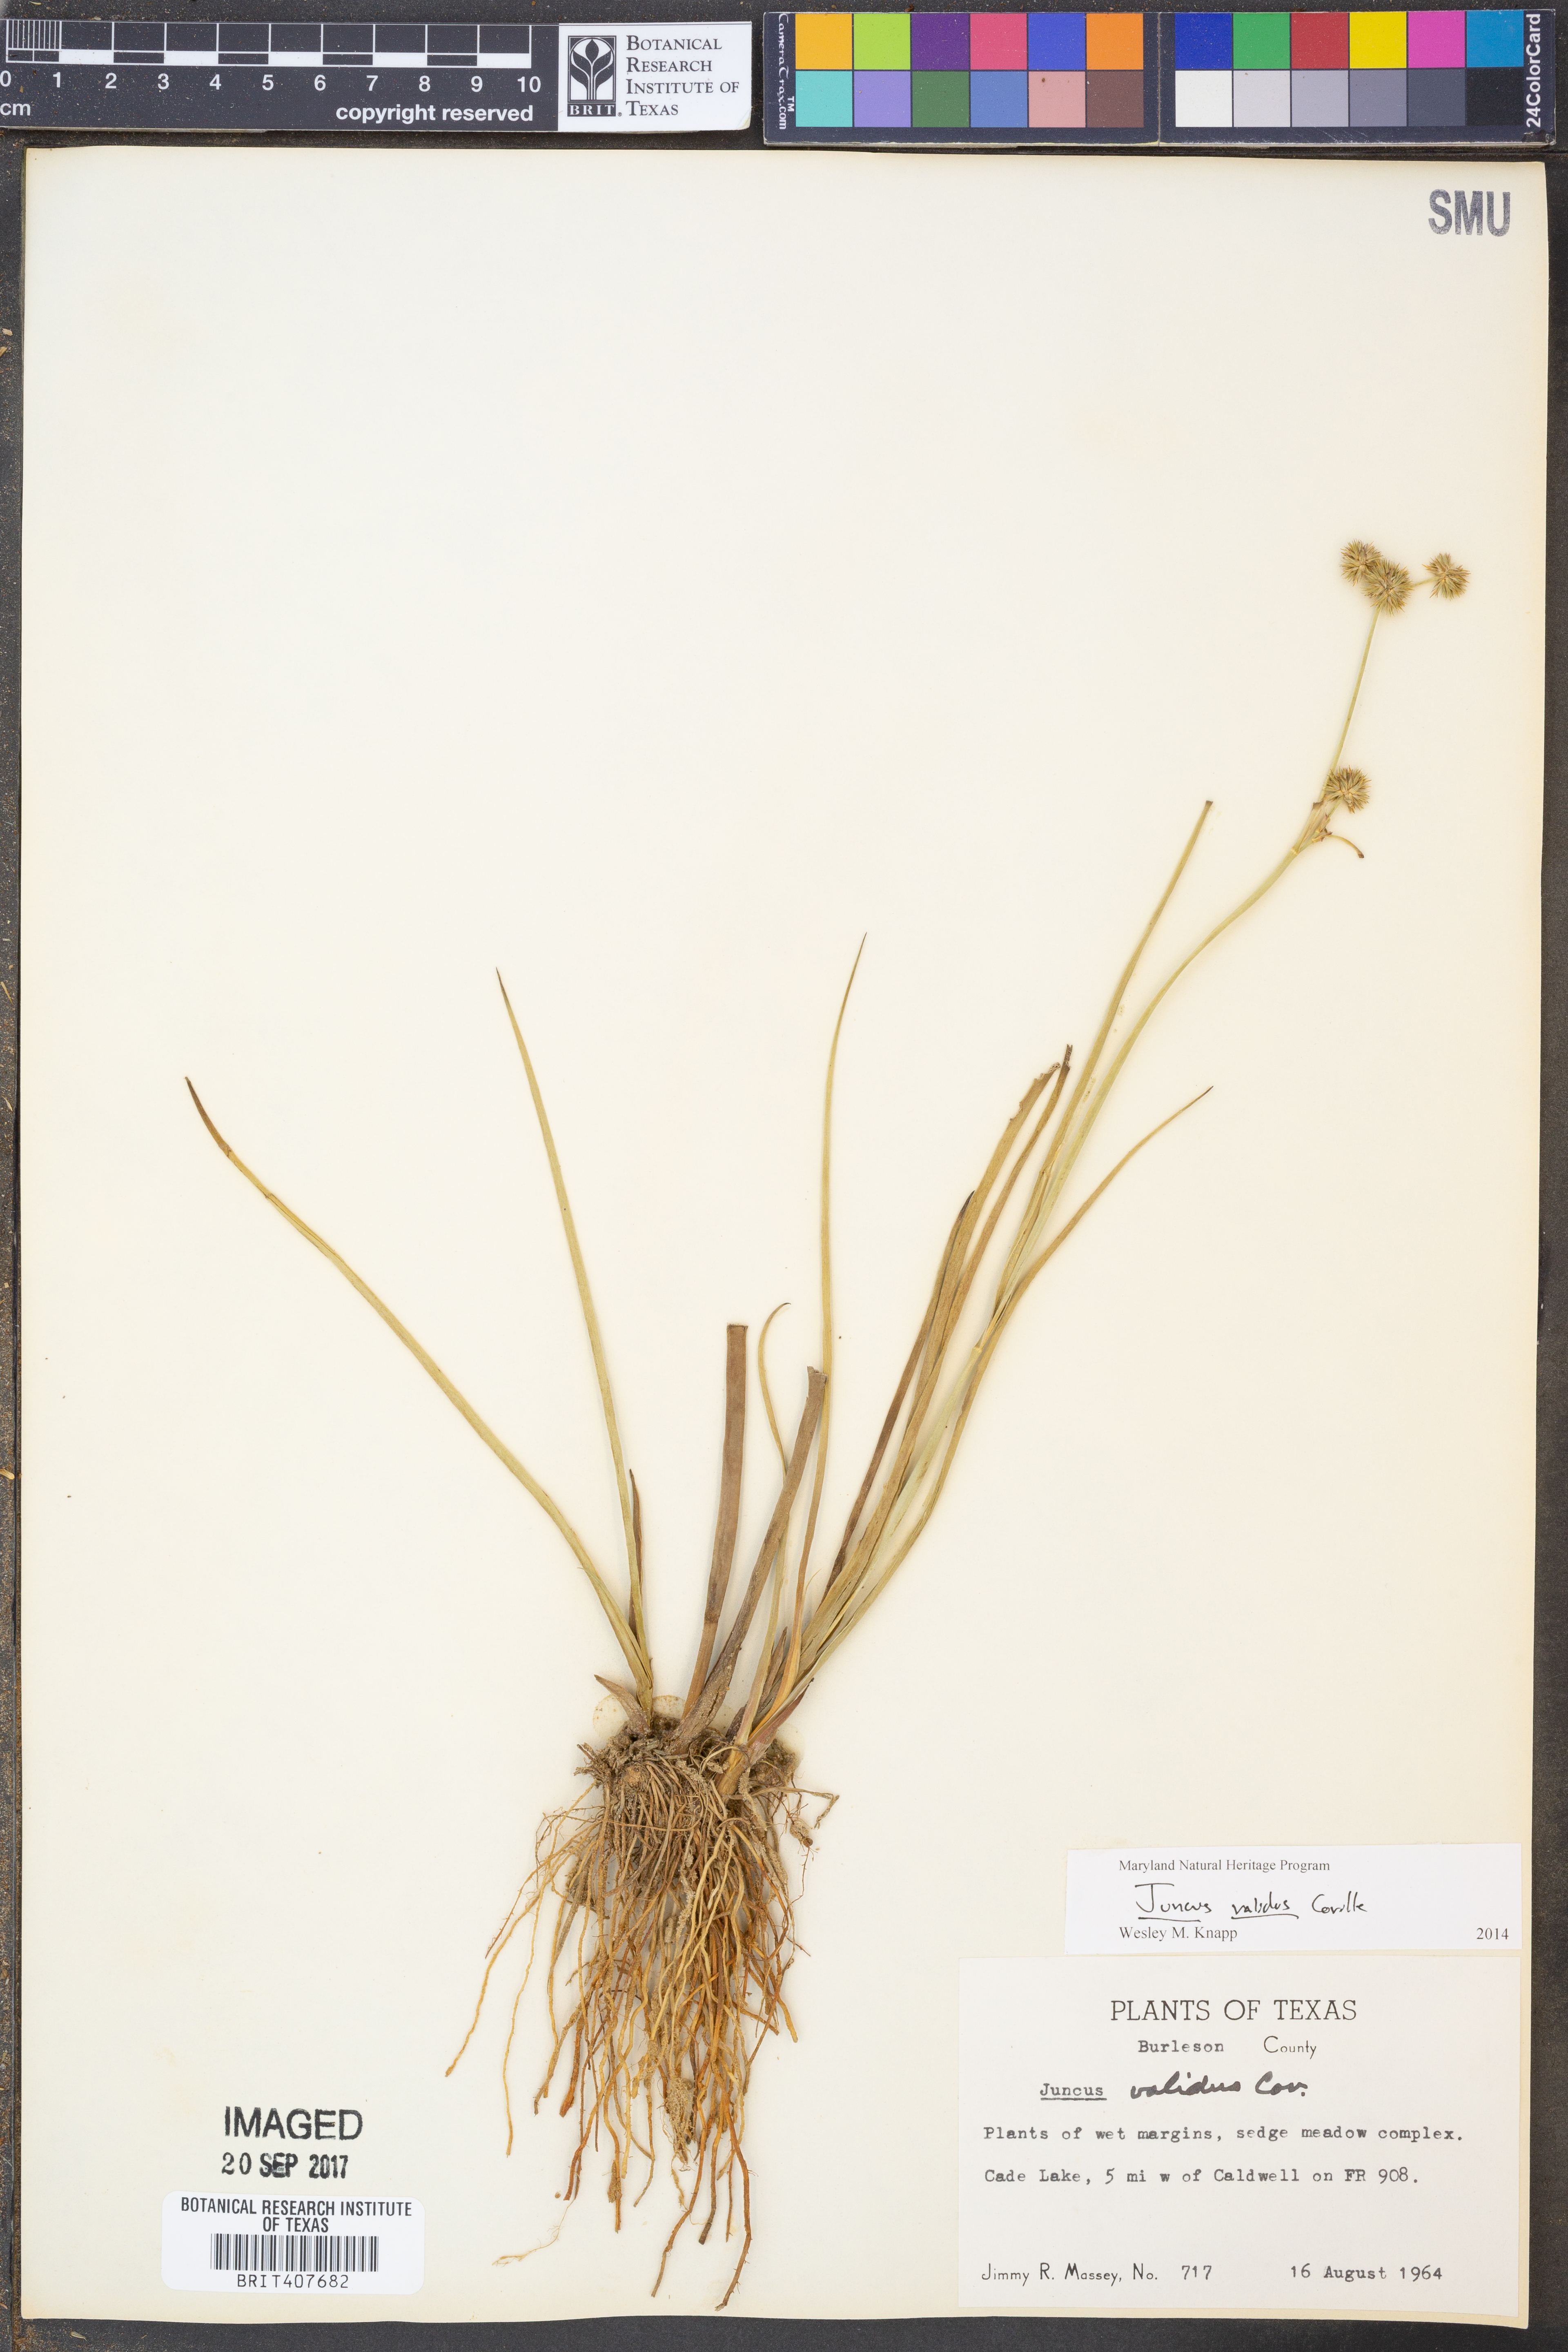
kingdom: Plantae
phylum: Tracheophyta
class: Liliopsida
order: Poales
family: Juncaceae
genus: Juncus
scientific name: Juncus validus
